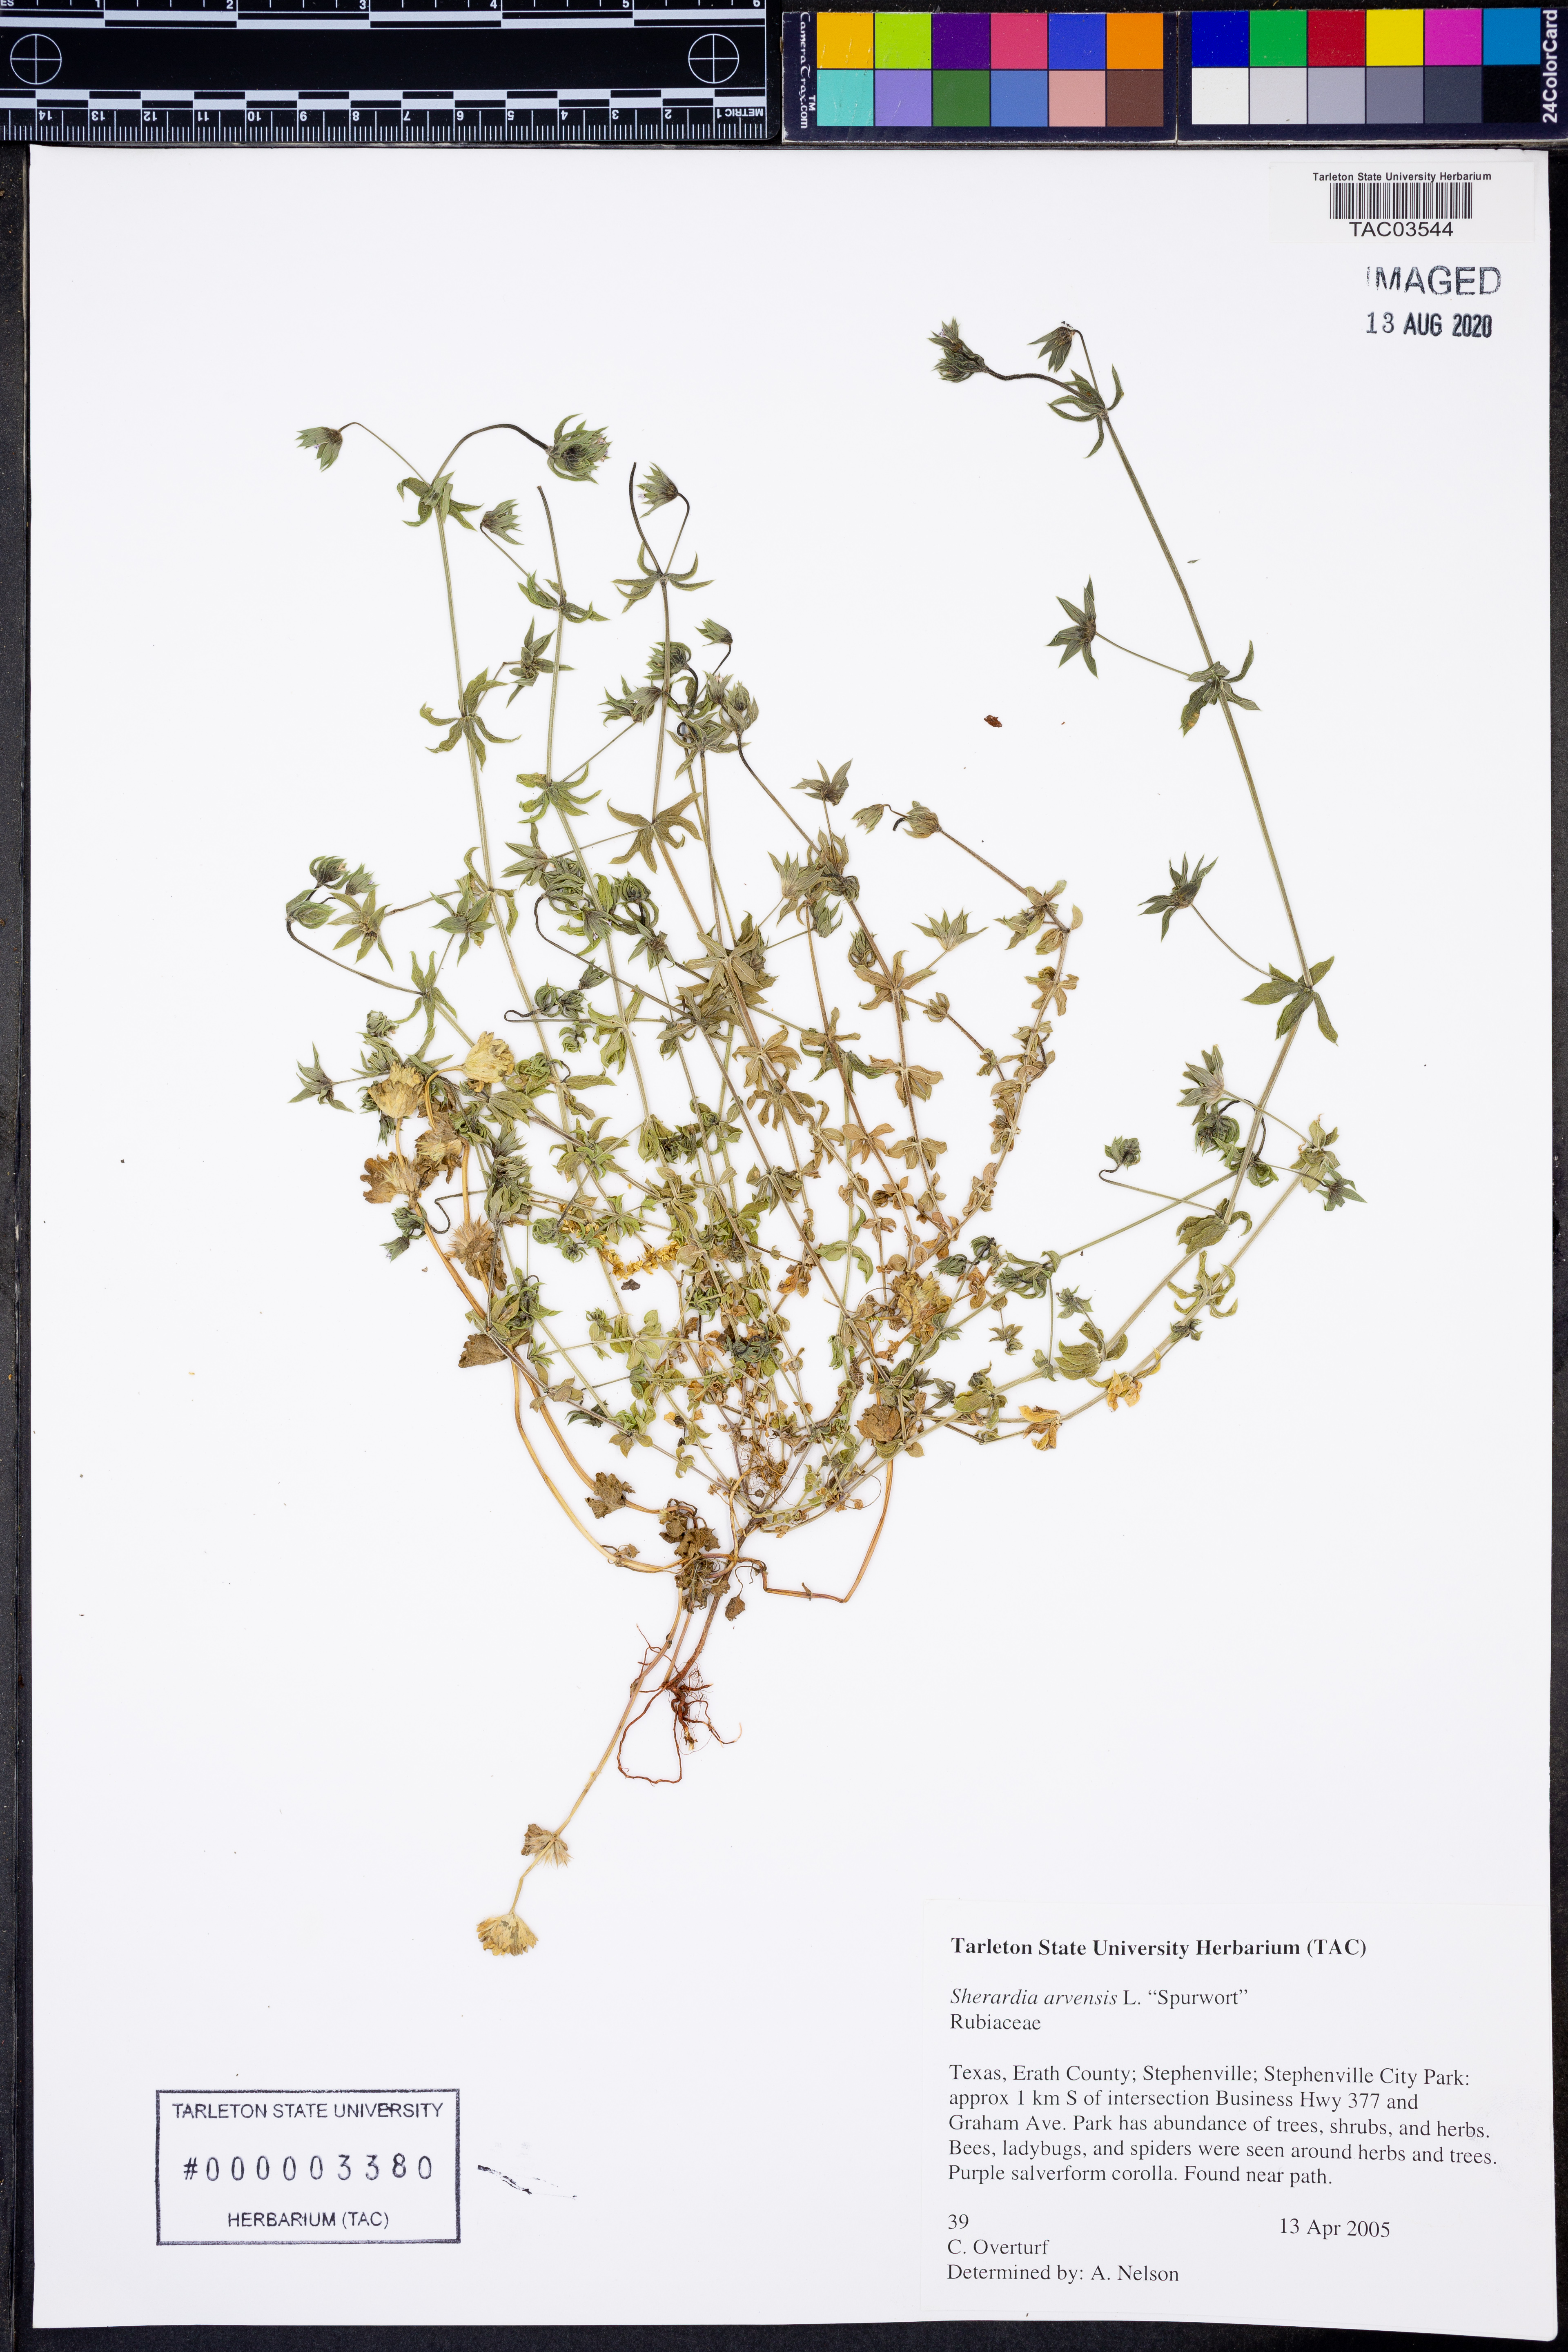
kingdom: Plantae
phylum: Tracheophyta
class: Magnoliopsida
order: Gentianales
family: Rubiaceae
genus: Sherardia
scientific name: Sherardia arvensis
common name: Field madder
